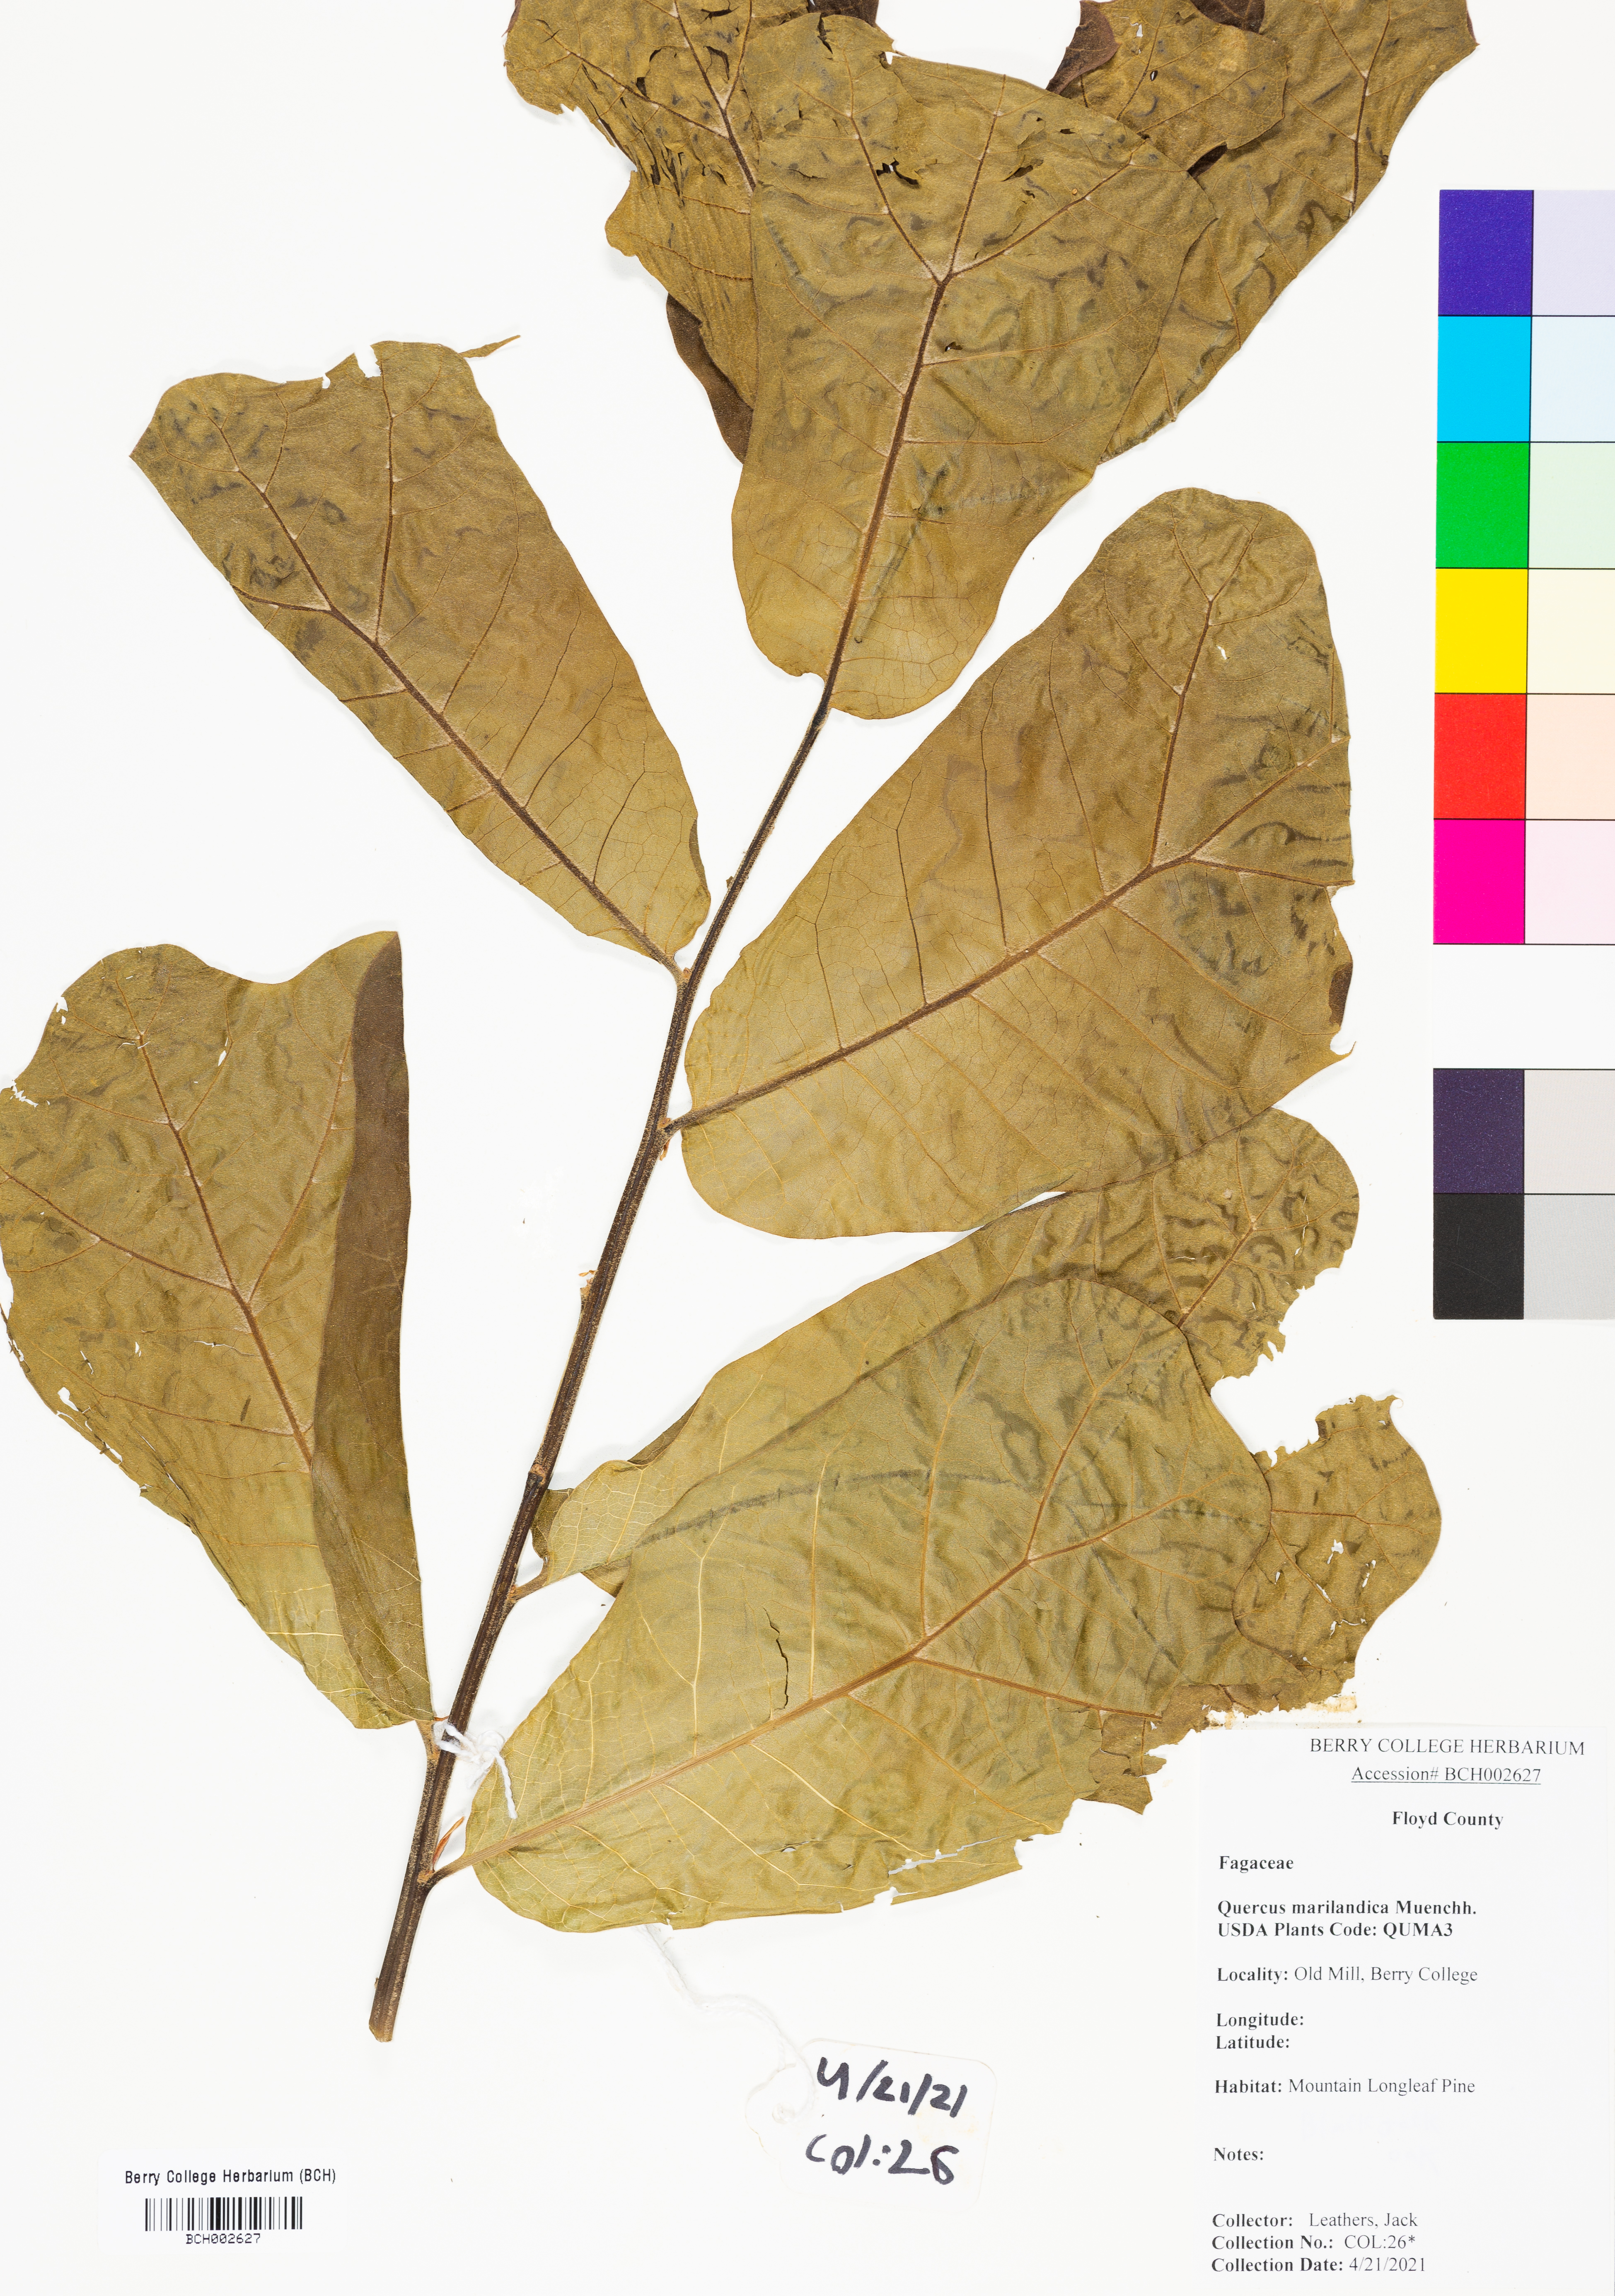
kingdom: Plantae
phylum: Tracheophyta
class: Magnoliopsida
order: Fagales
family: Fagaceae
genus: Quercus
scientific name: Quercus marilandica
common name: Blackjack oak
